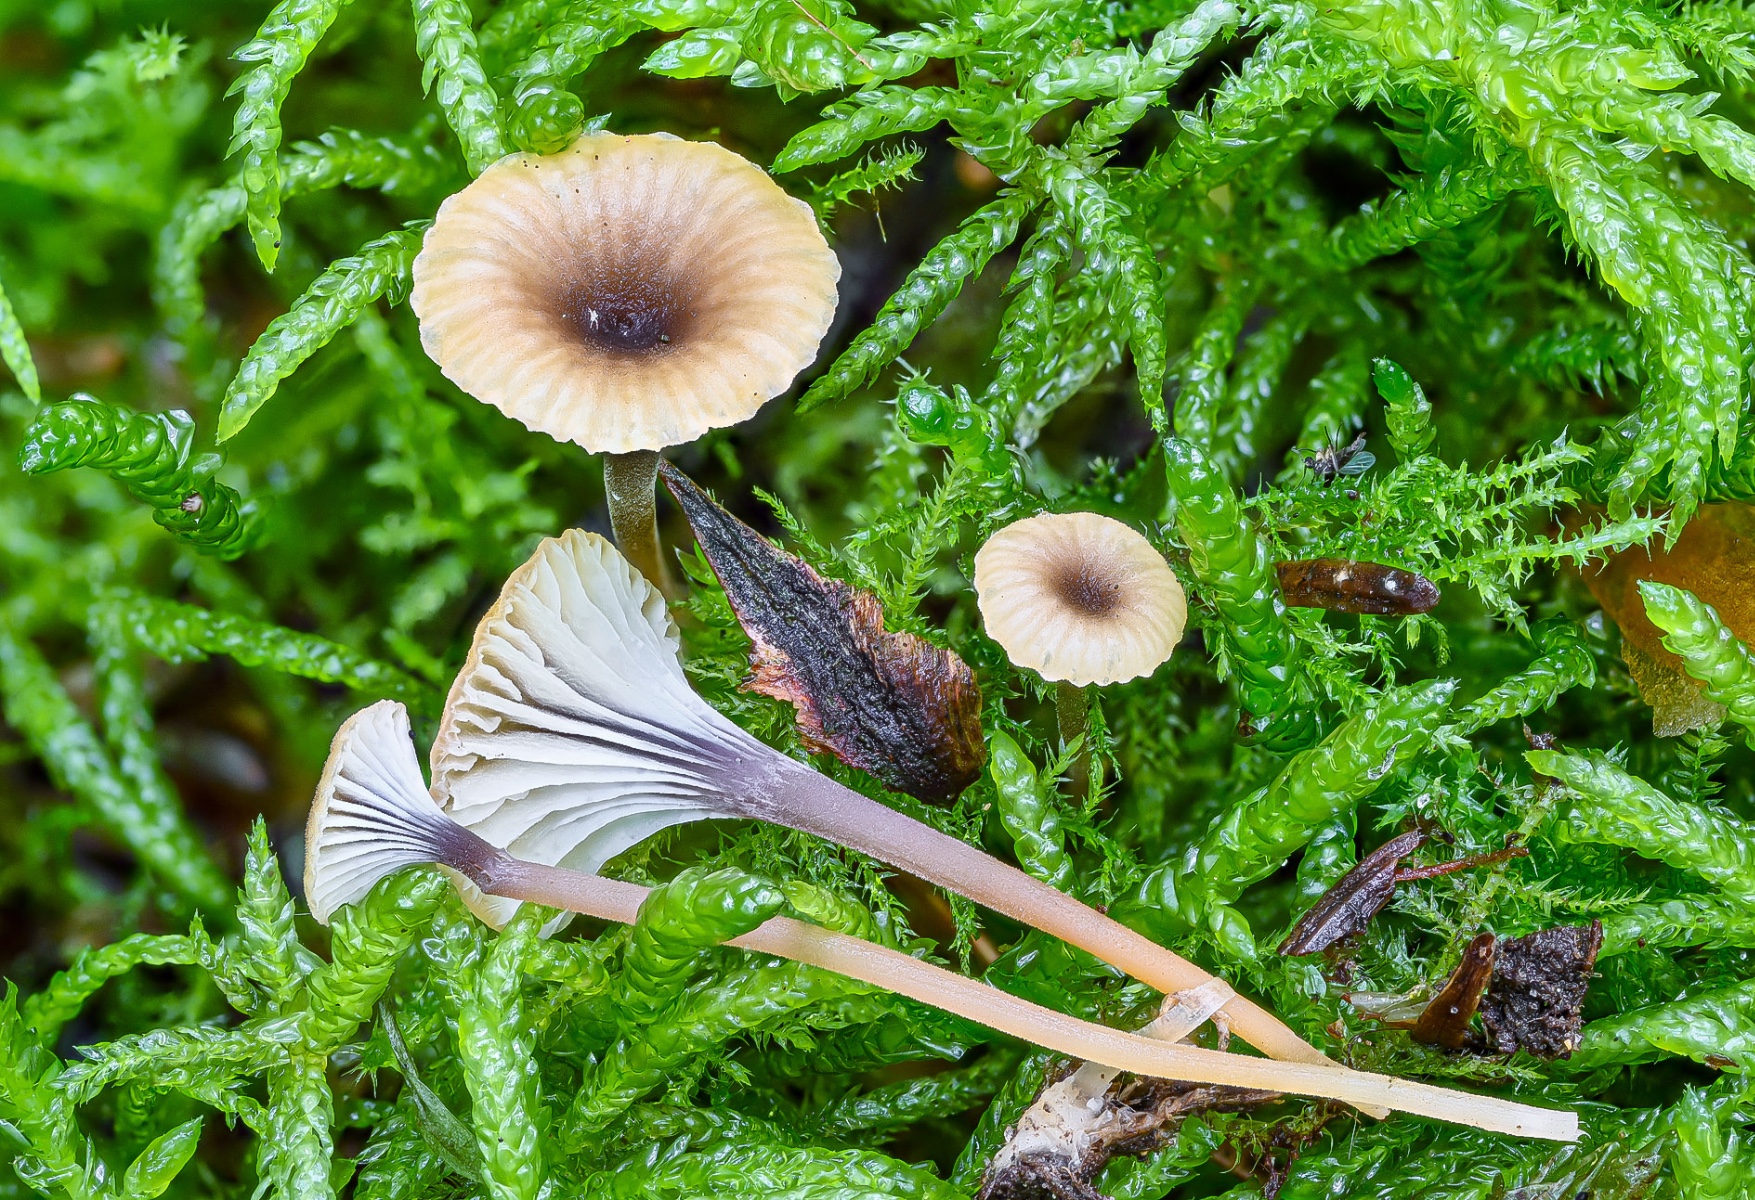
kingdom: Fungi
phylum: Basidiomycota
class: Agaricomycetes
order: Hymenochaetales
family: Rickenellaceae
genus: Rickenella
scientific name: Rickenella swartzii
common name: finstokket mosnavlehat
